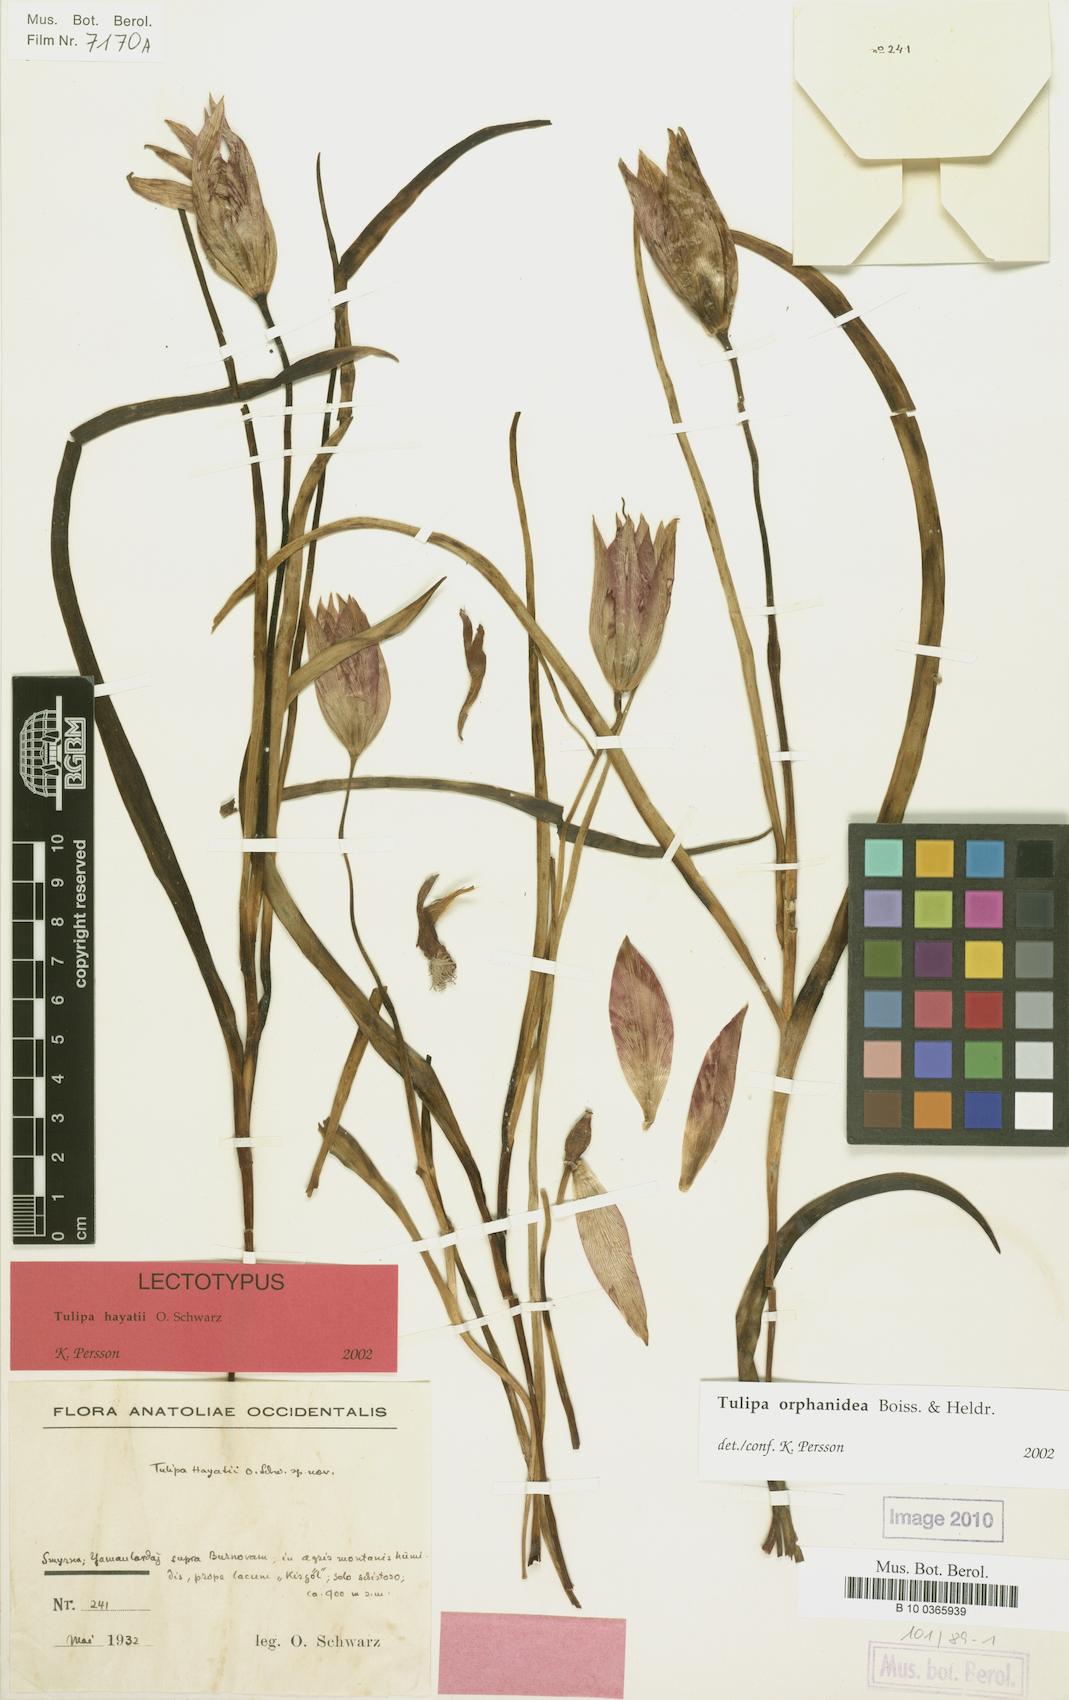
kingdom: Plantae
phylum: Tracheophyta
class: Liliopsida
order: Liliales
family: Liliaceae
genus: Tulipa
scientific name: Tulipa orphanidea
